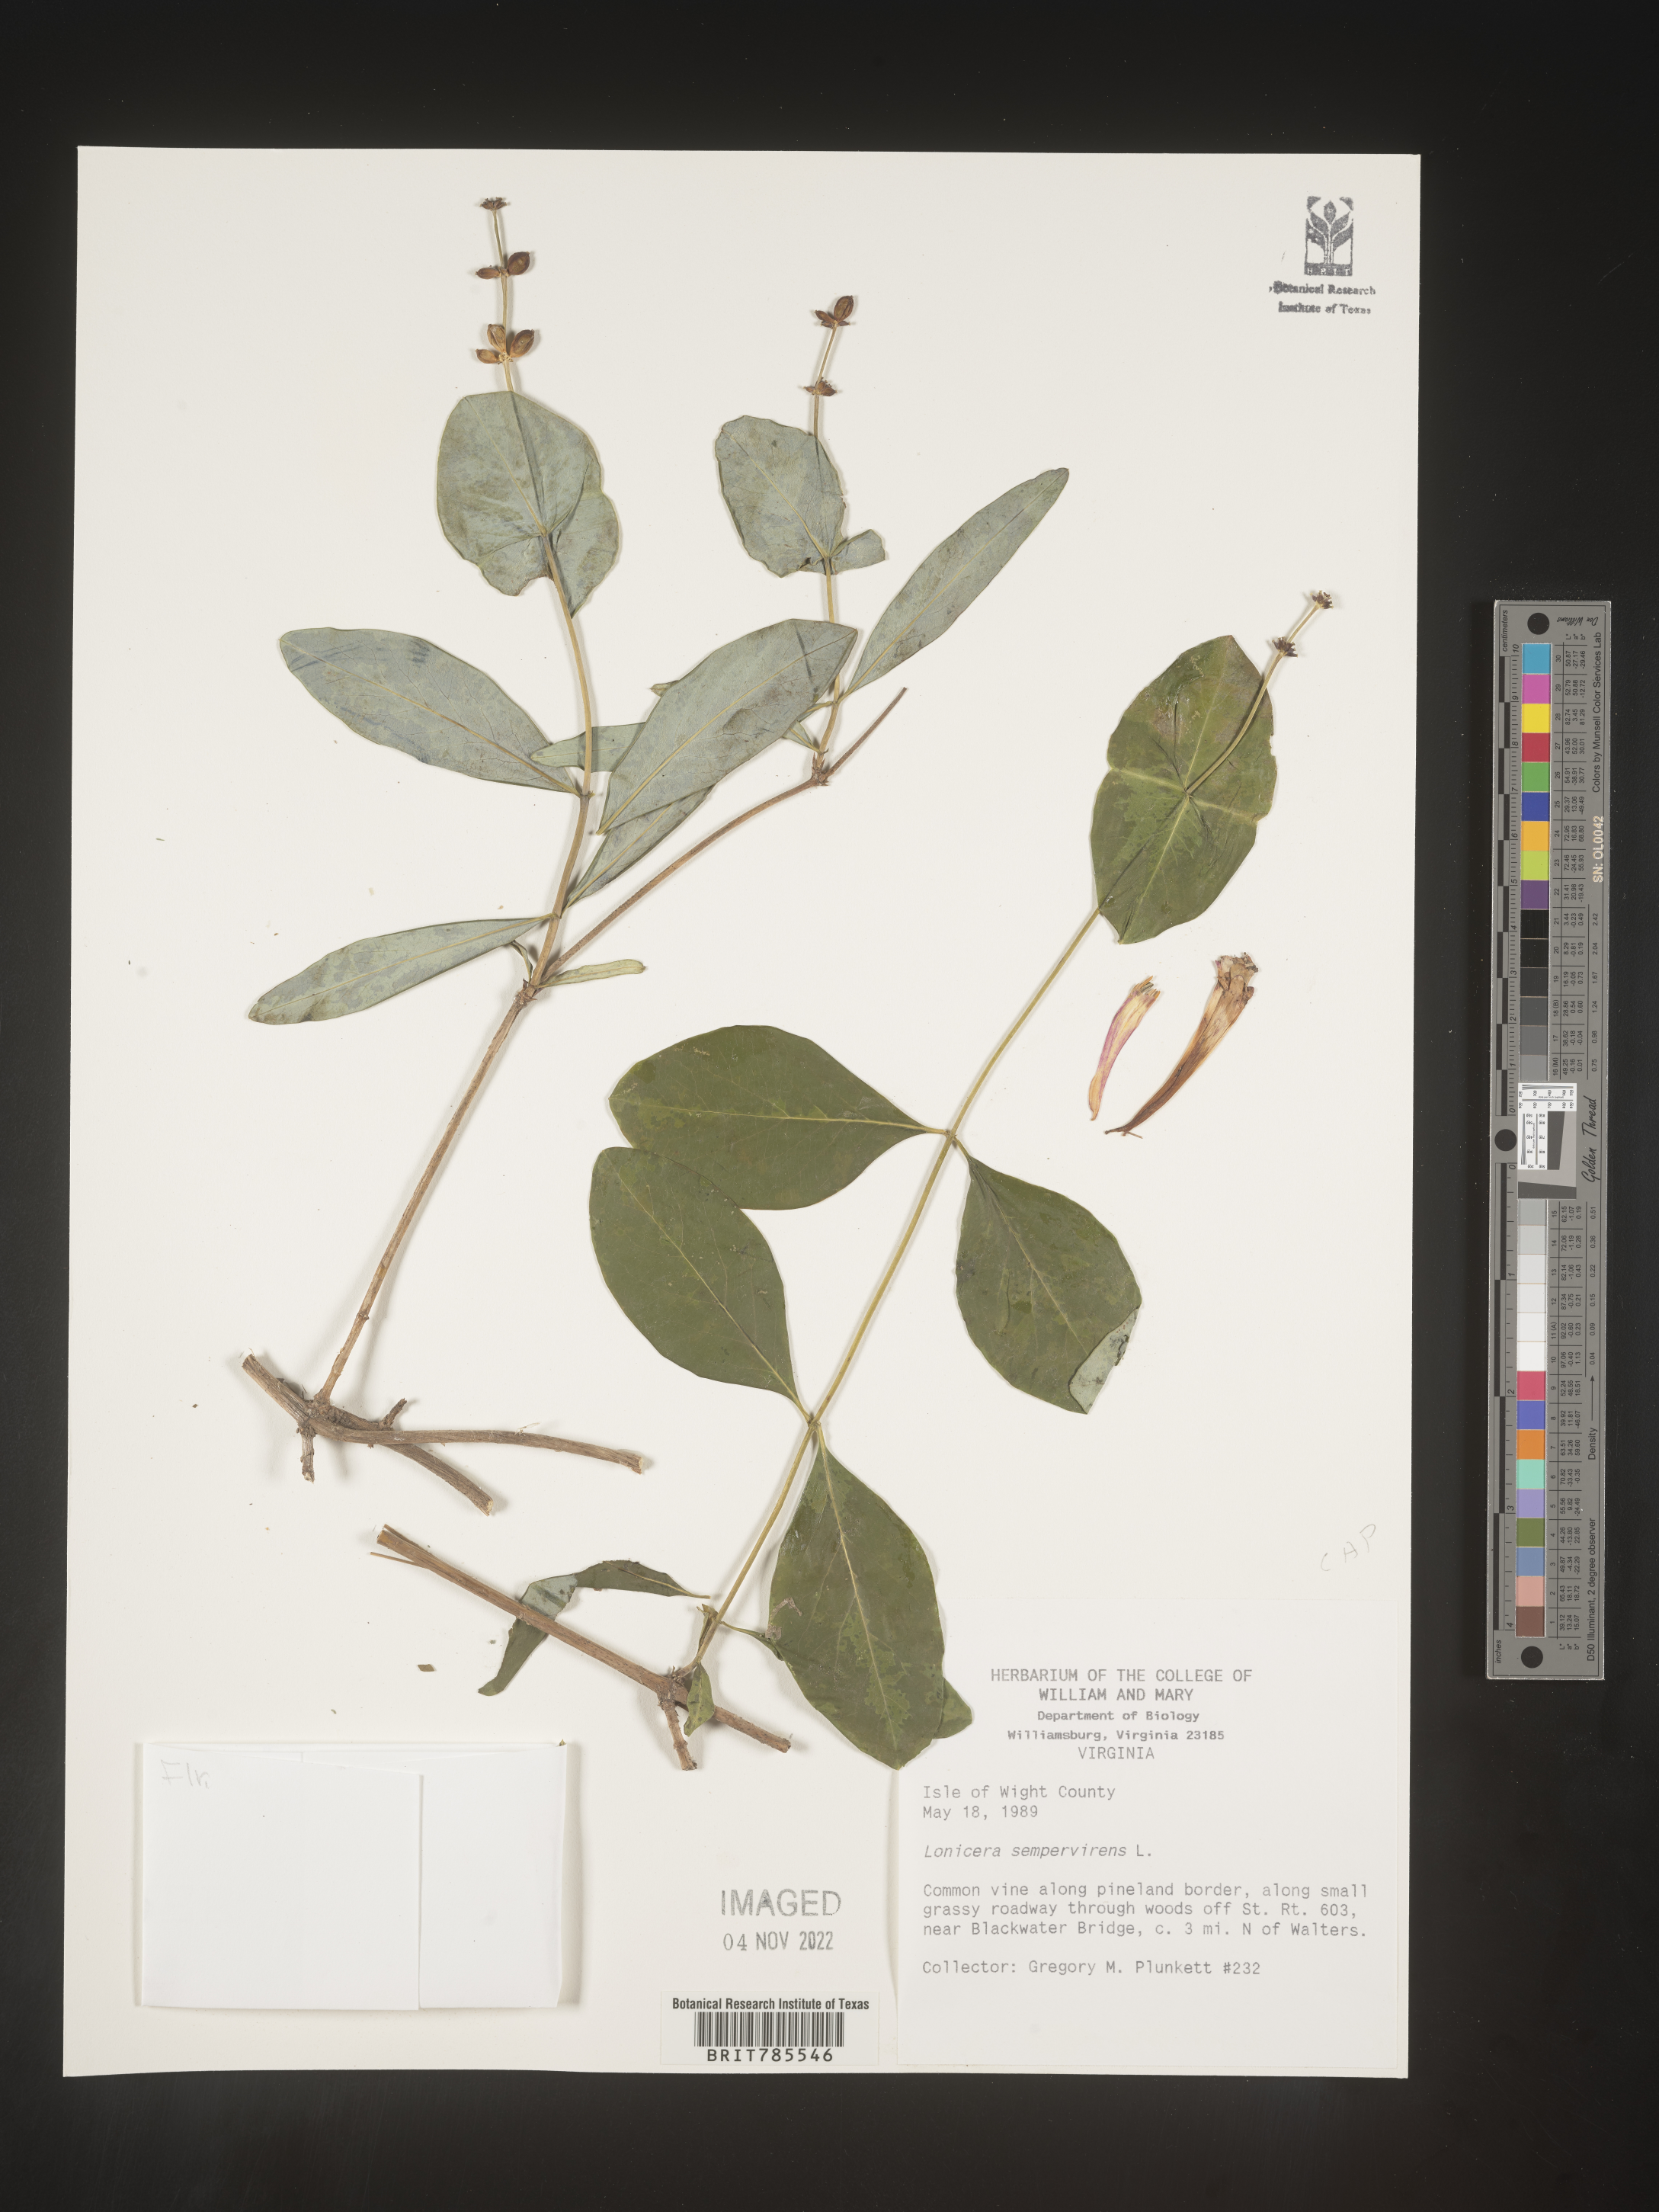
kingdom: Plantae
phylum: Tracheophyta
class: Magnoliopsida
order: Dipsacales
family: Caprifoliaceae
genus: Lonicera
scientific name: Lonicera sempervirens
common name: Coral honeysuckle
